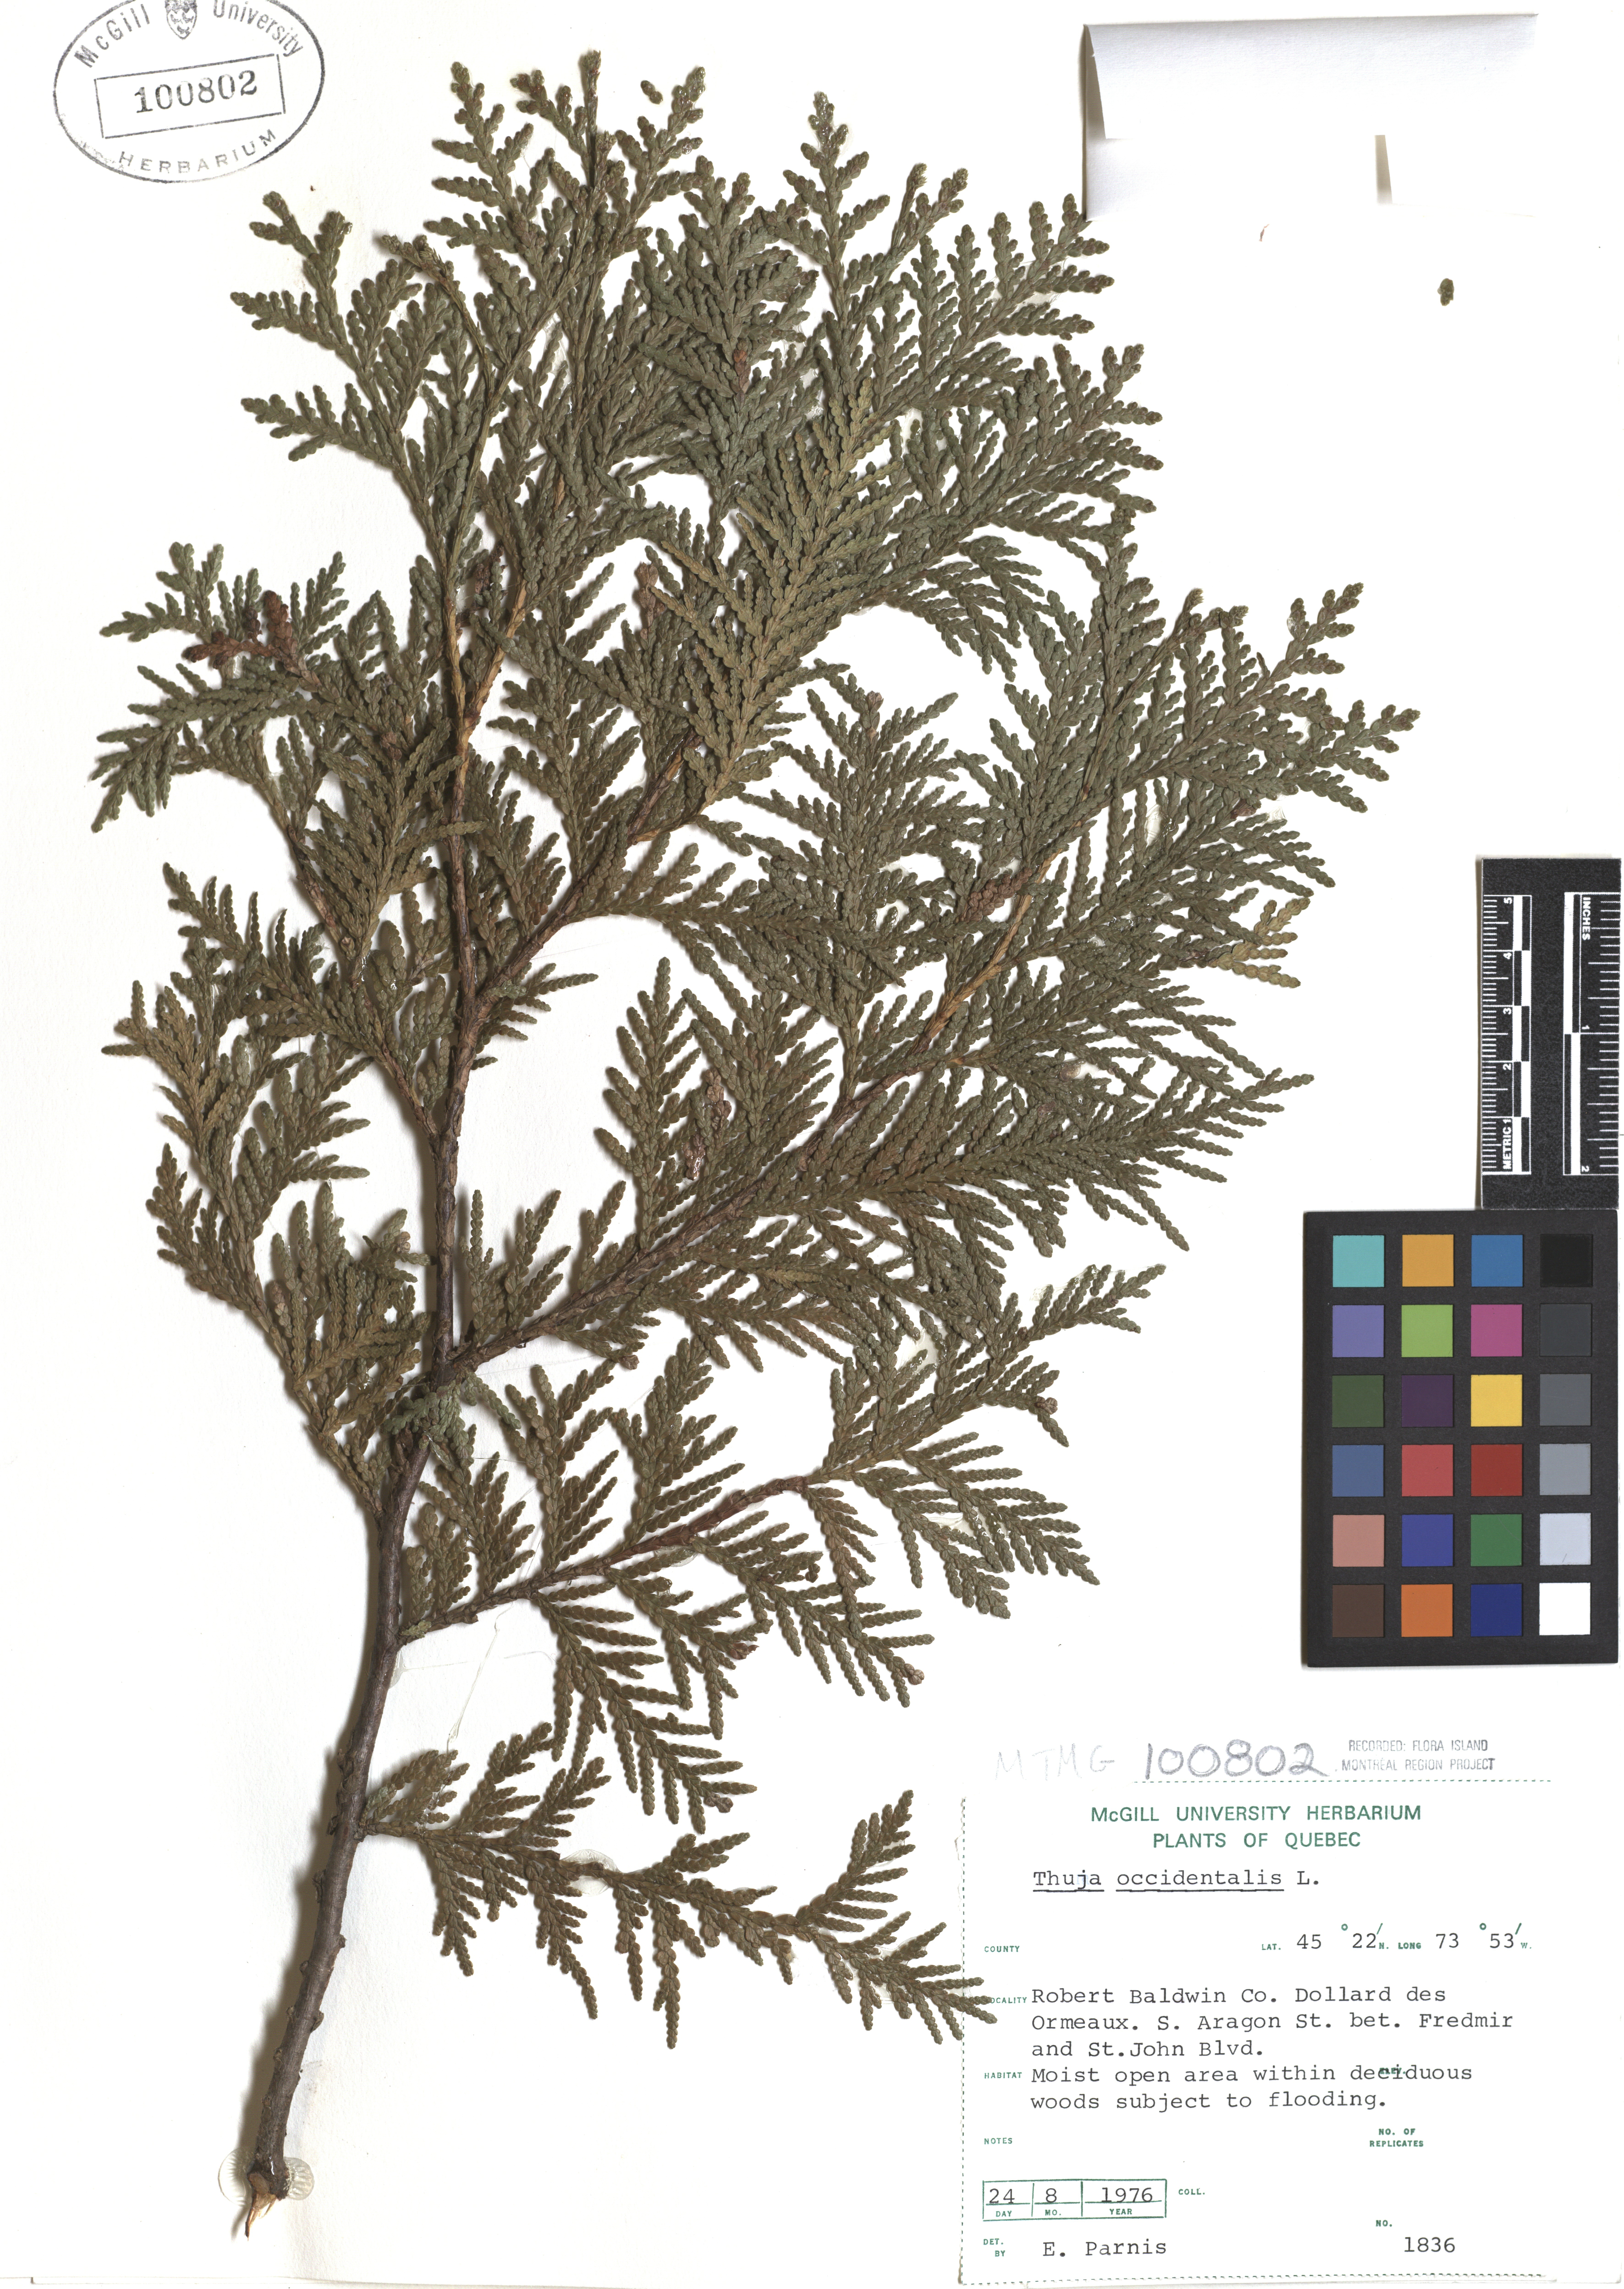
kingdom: Plantae
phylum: Tracheophyta
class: Pinopsida
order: Pinales
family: Cupressaceae
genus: Thuja
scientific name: Thuja occidentalis
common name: Northern white-cedar
